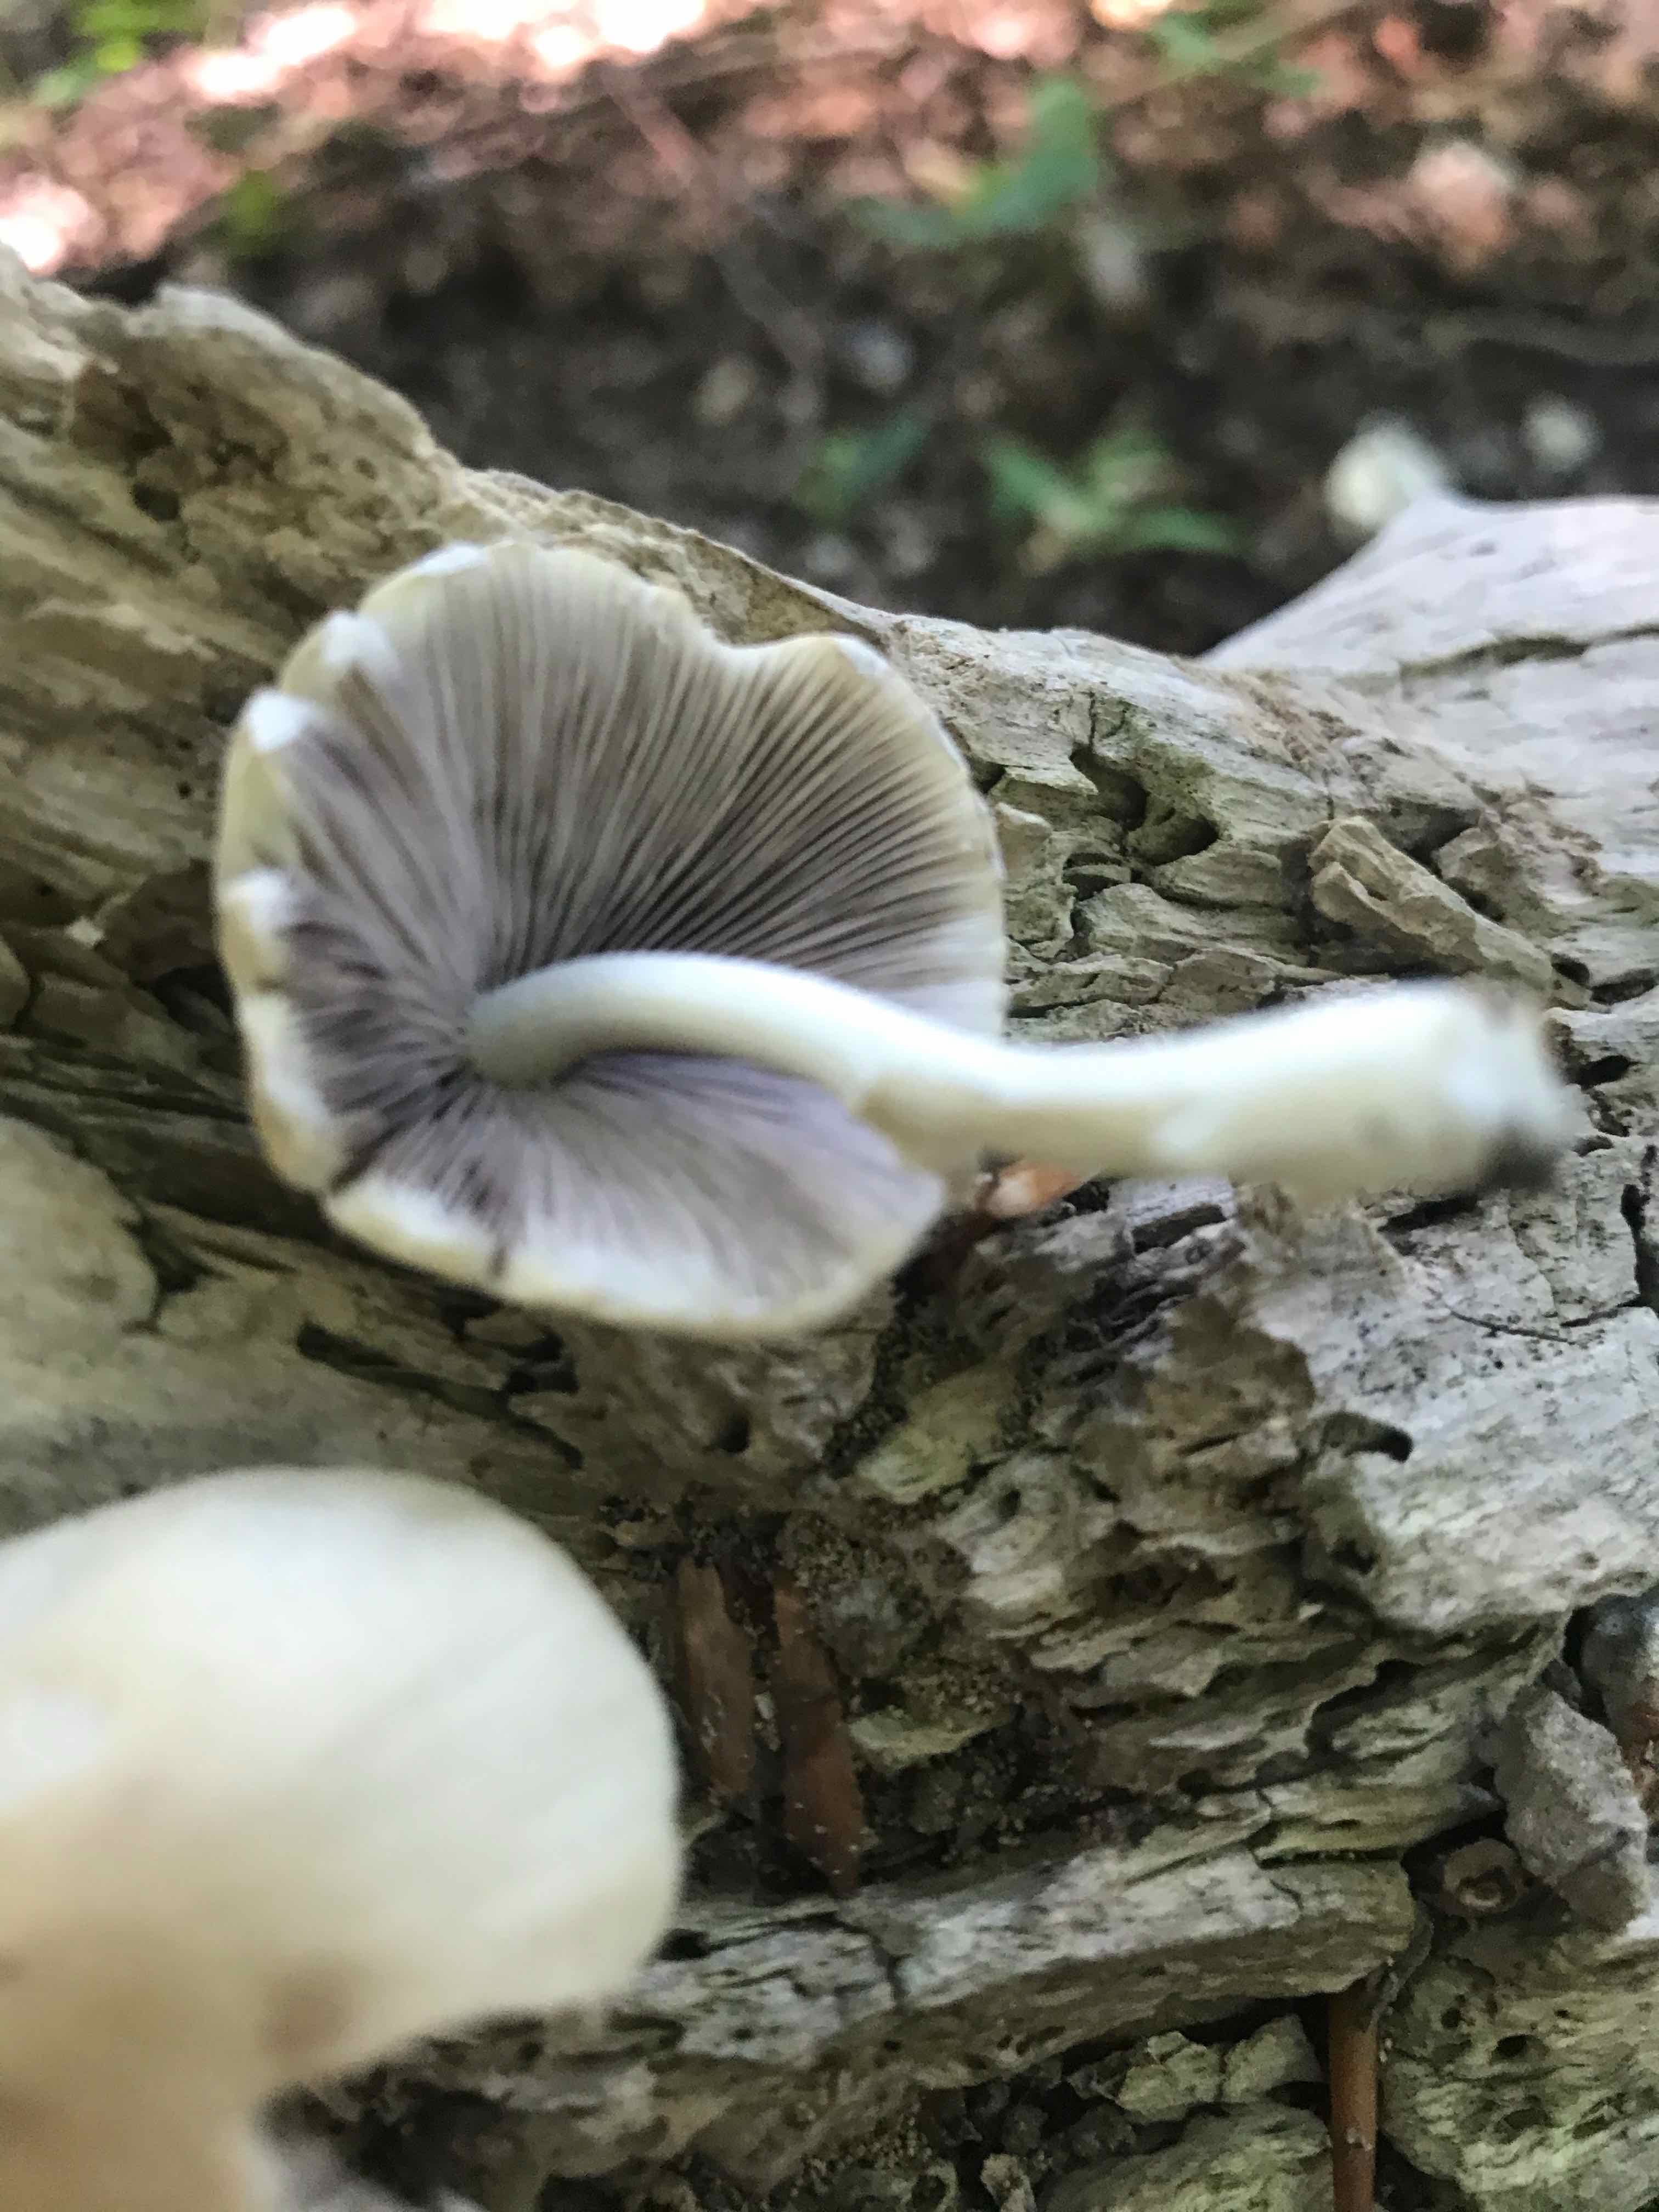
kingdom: Fungi
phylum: Basidiomycota
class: Agaricomycetes
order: Agaricales
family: Psathyrellaceae
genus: Candolleomyces
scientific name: Candolleomyces candolleanus
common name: Candolles mørkhat
